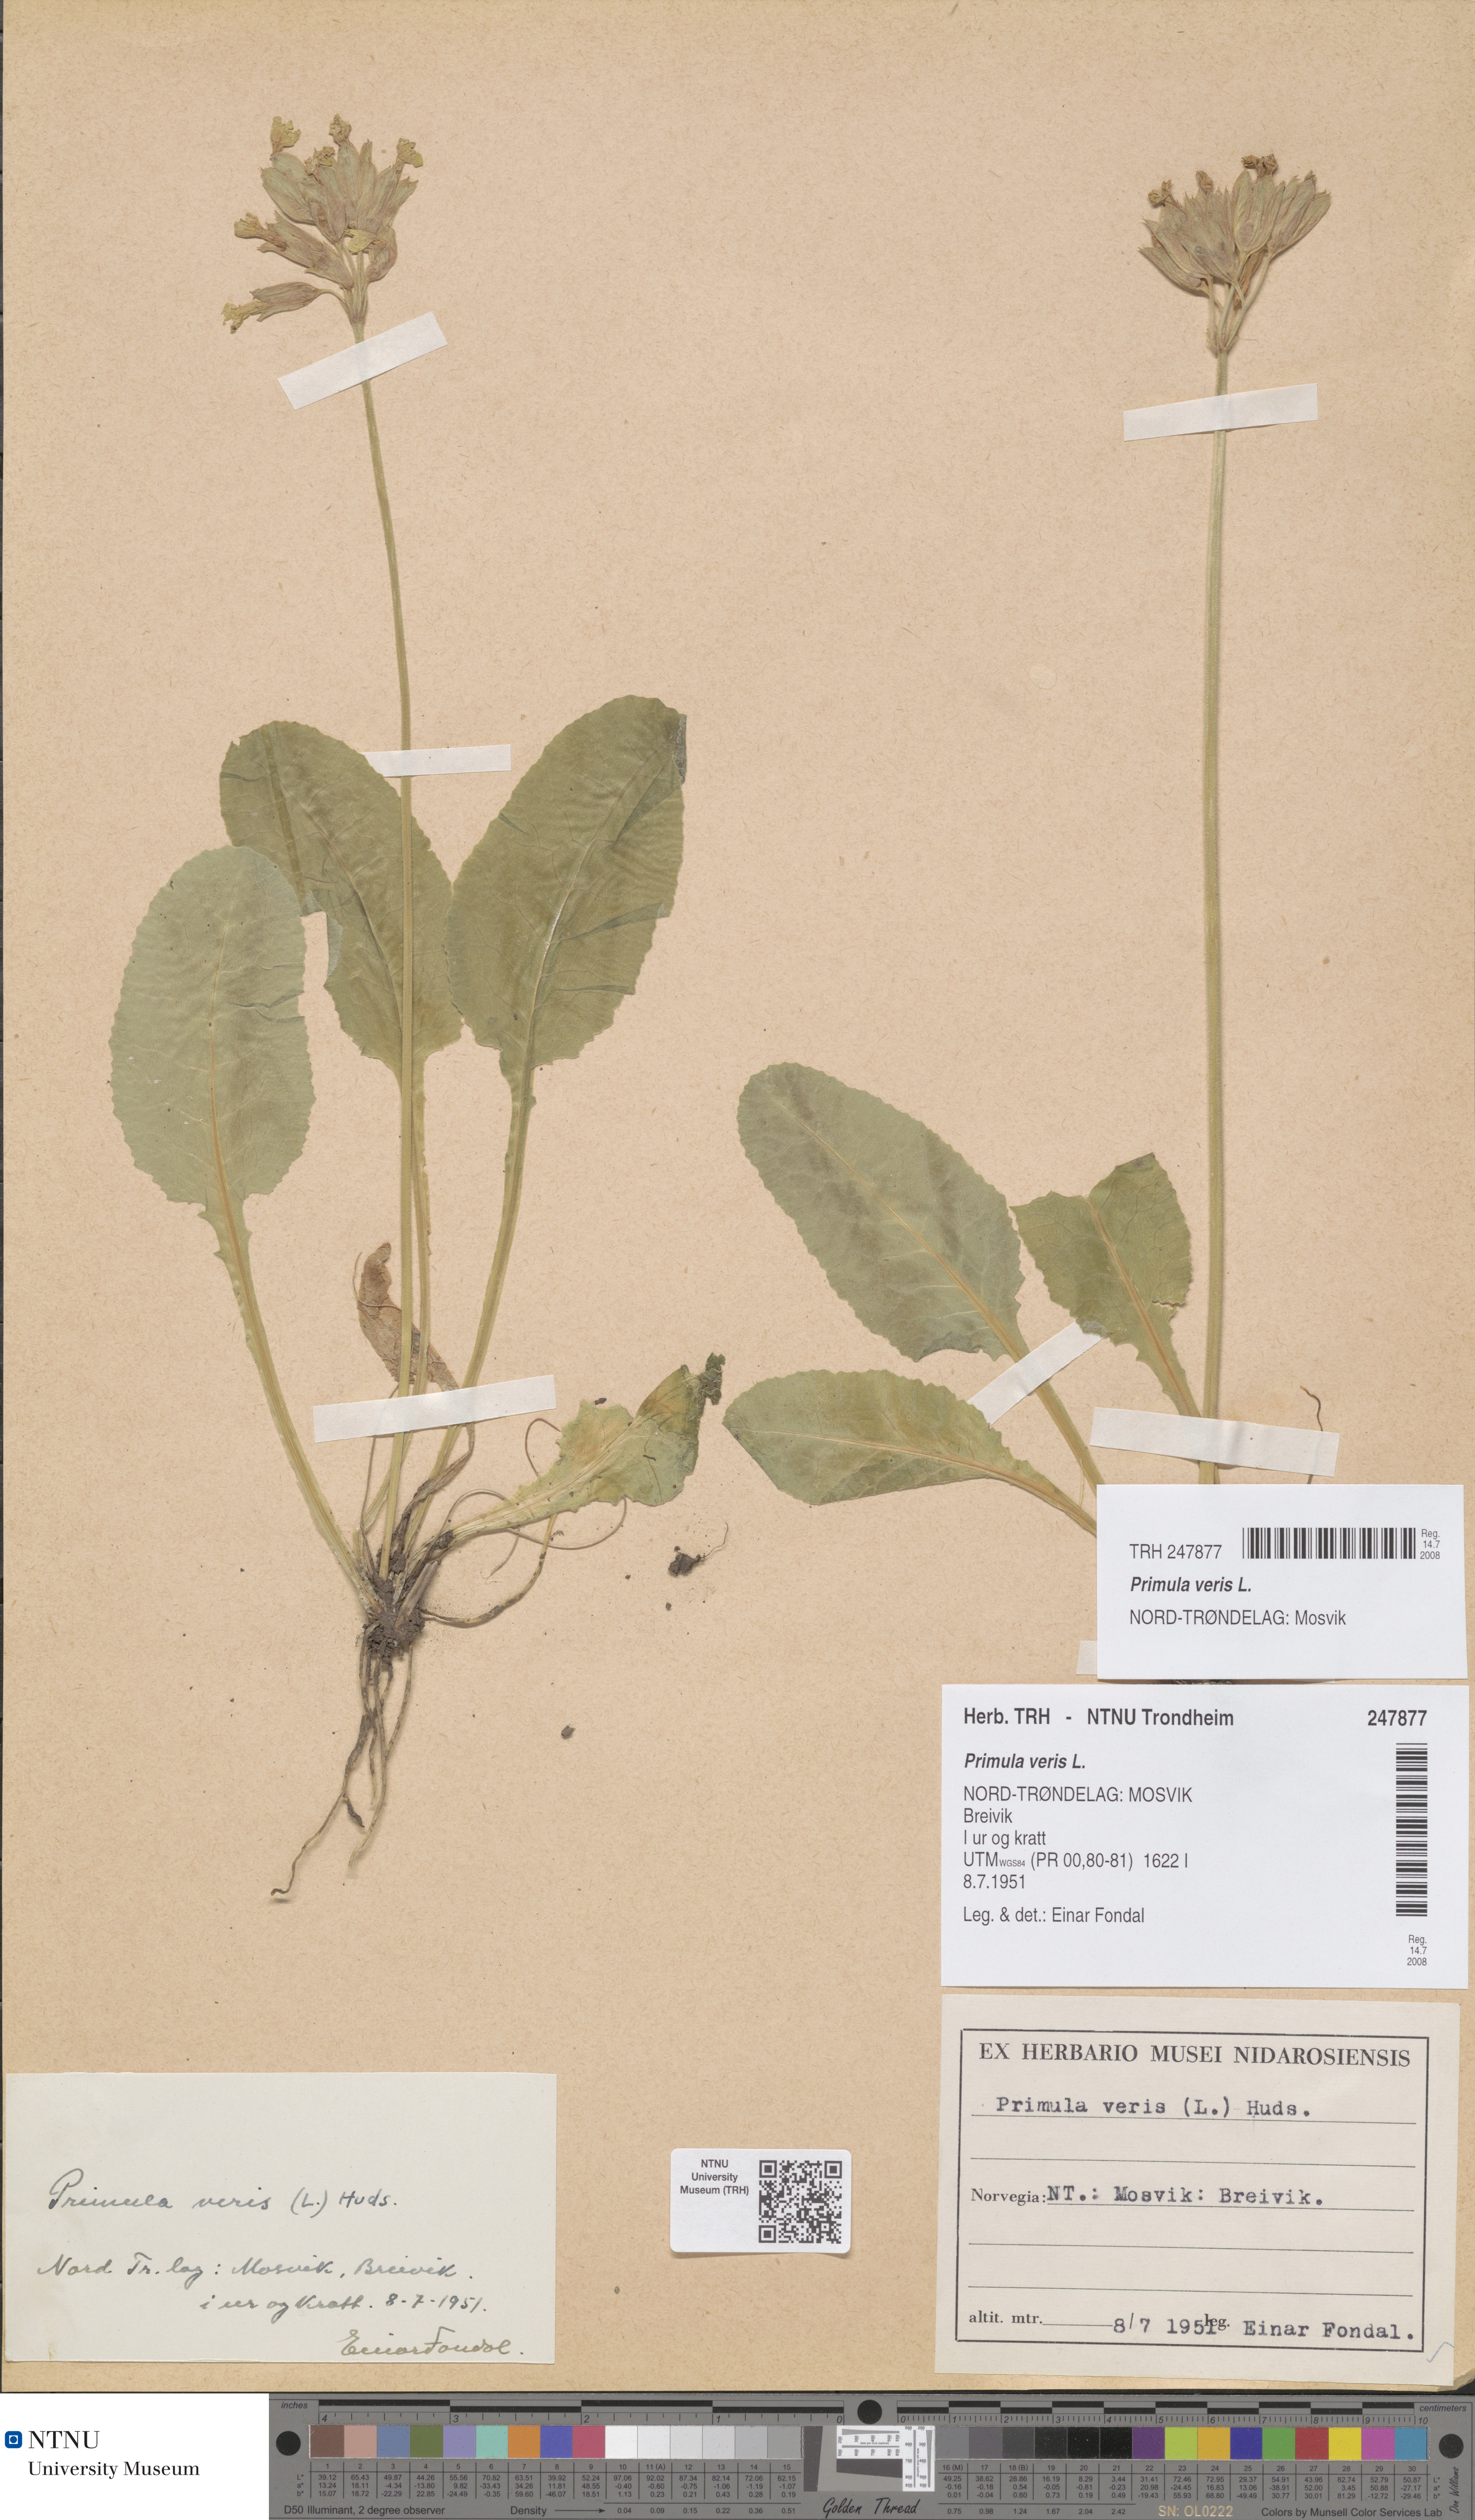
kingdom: Plantae
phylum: Tracheophyta
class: Magnoliopsida
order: Ericales
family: Primulaceae
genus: Primula
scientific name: Primula veris
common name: Cowslip
